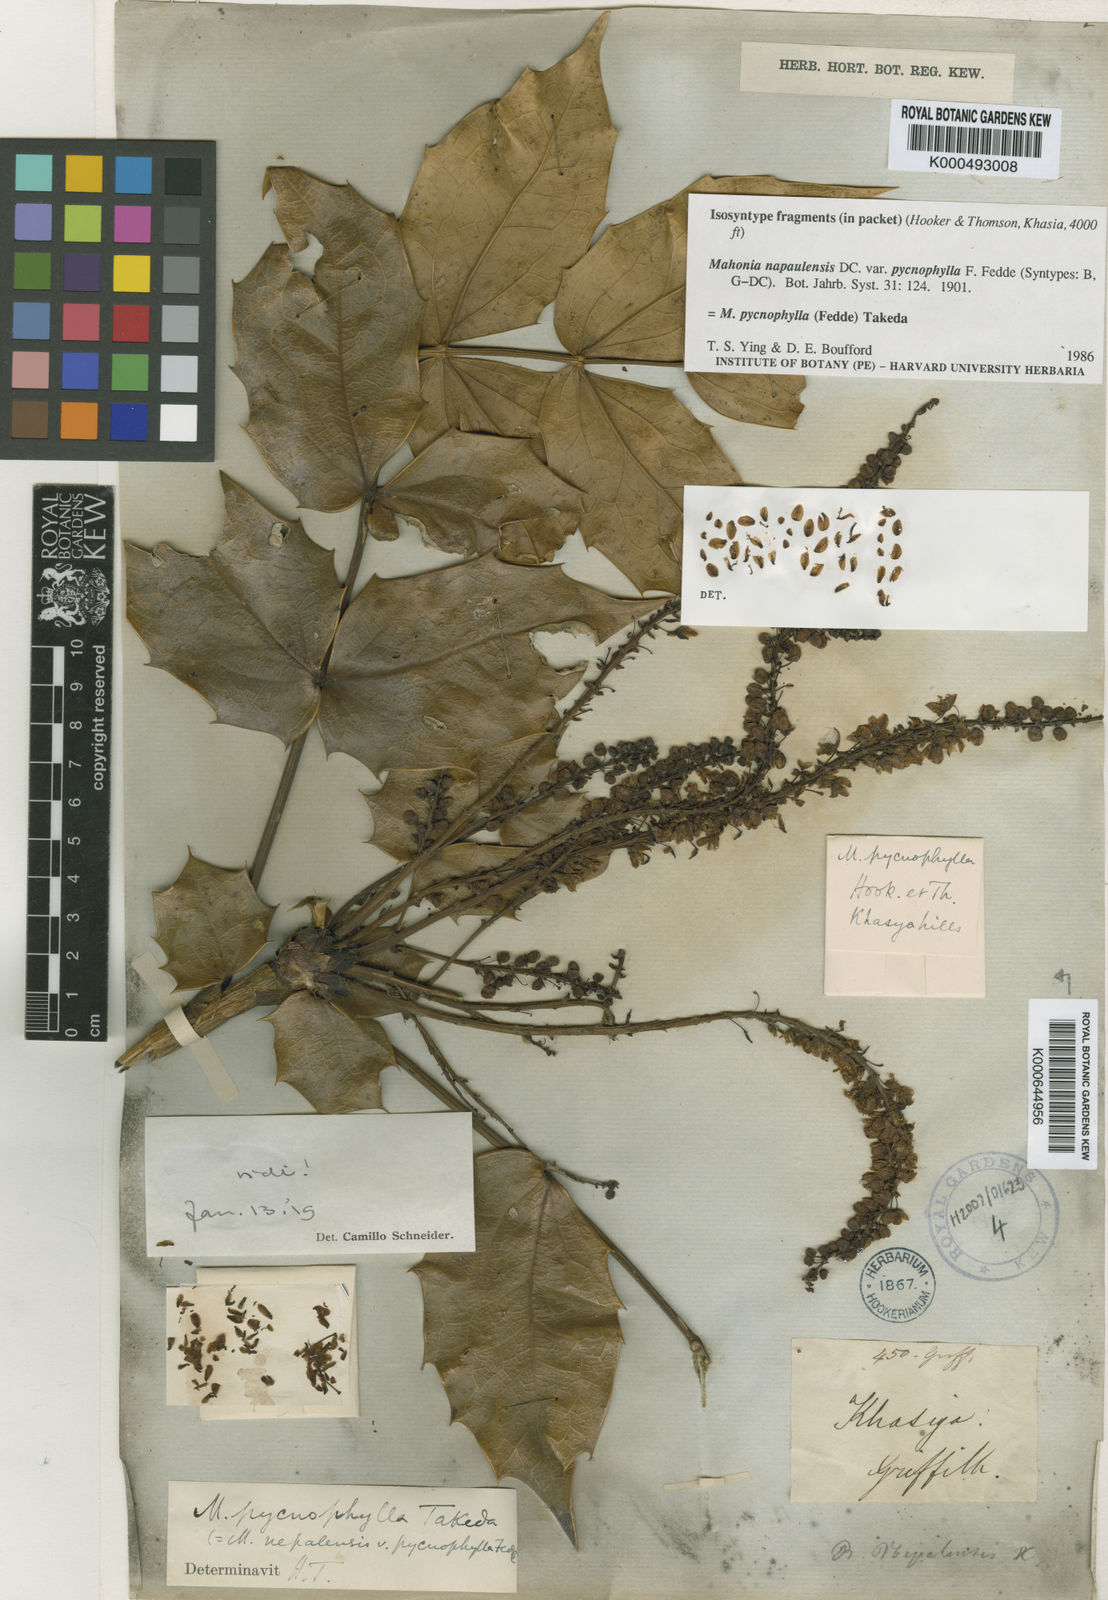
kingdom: Plantae
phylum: Tracheophyta
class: Magnoliopsida
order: Ranunculales
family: Berberidaceae
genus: Mahonia
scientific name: Mahonia pycnophylla
